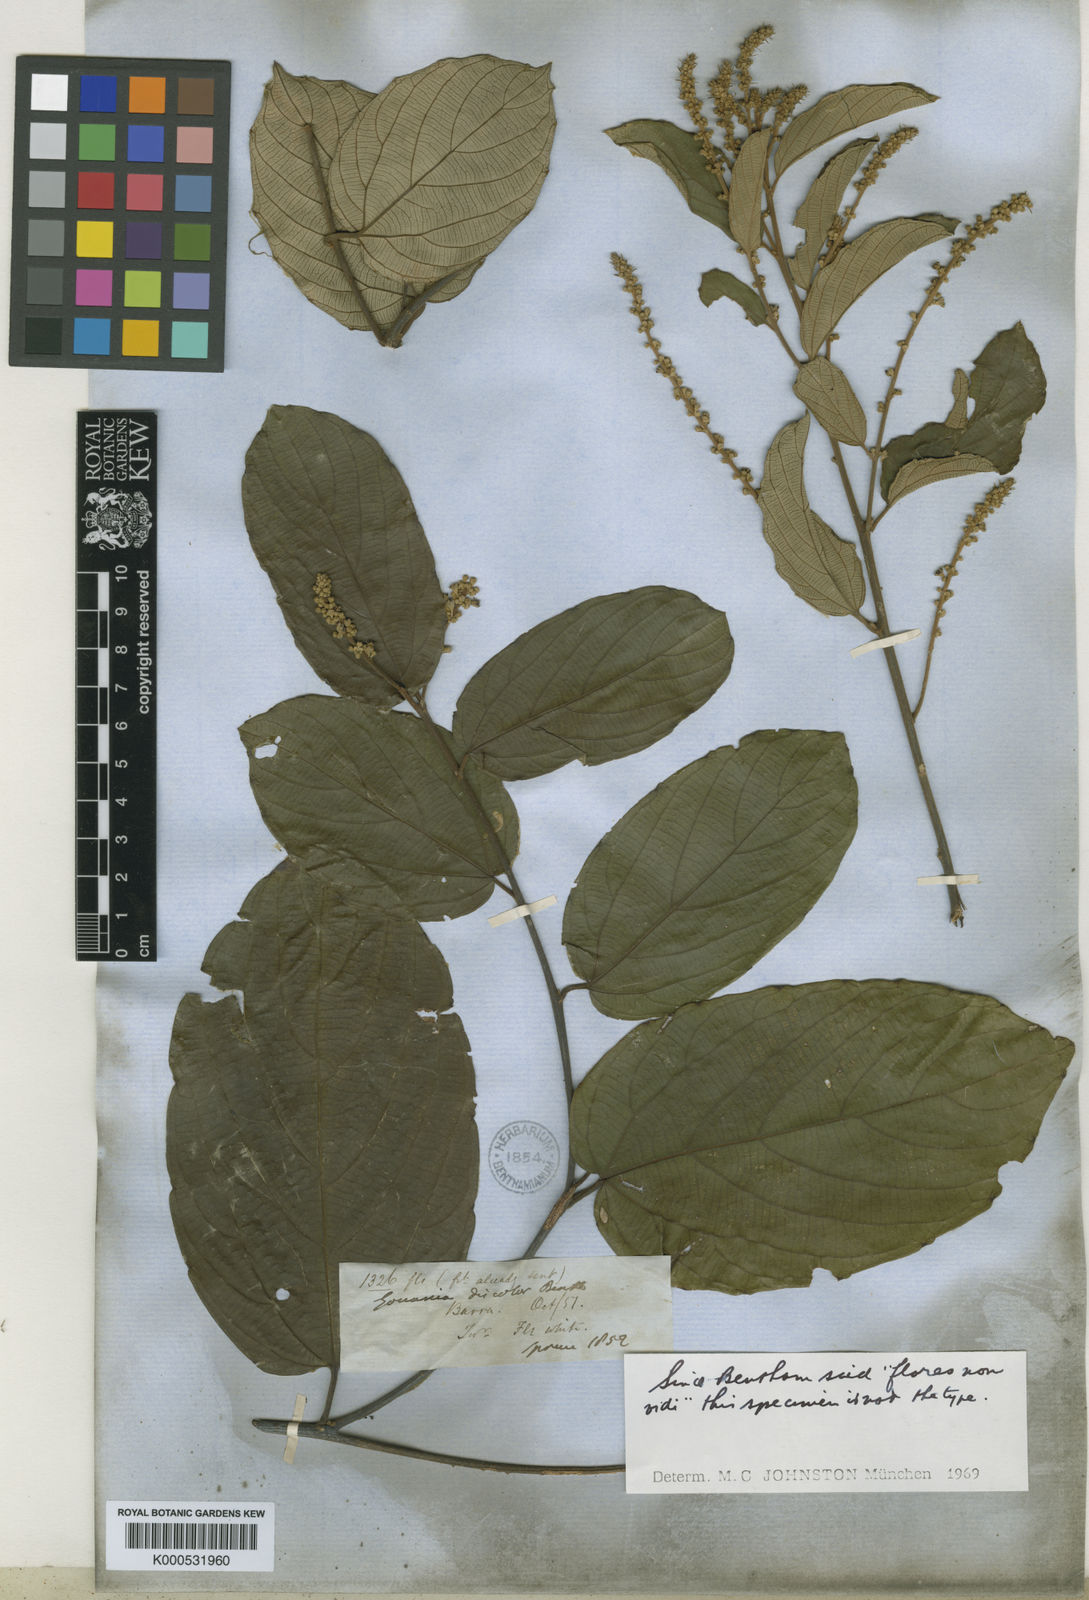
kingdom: Plantae
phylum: Tracheophyta
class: Magnoliopsida
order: Rosales
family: Rhamnaceae
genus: Gouania
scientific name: Gouania discolor
